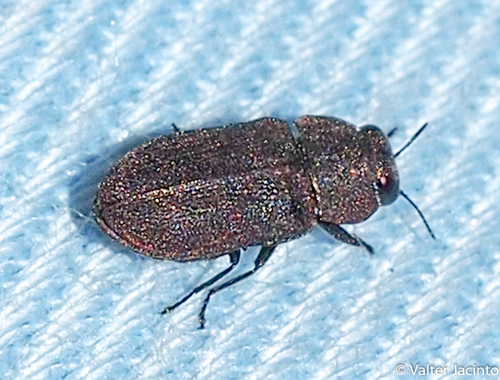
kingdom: Animalia
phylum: Arthropoda
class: Insecta
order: Coleoptera
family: Buprestidae
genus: Anthaxia
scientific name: Anthaxia sepulchralis
